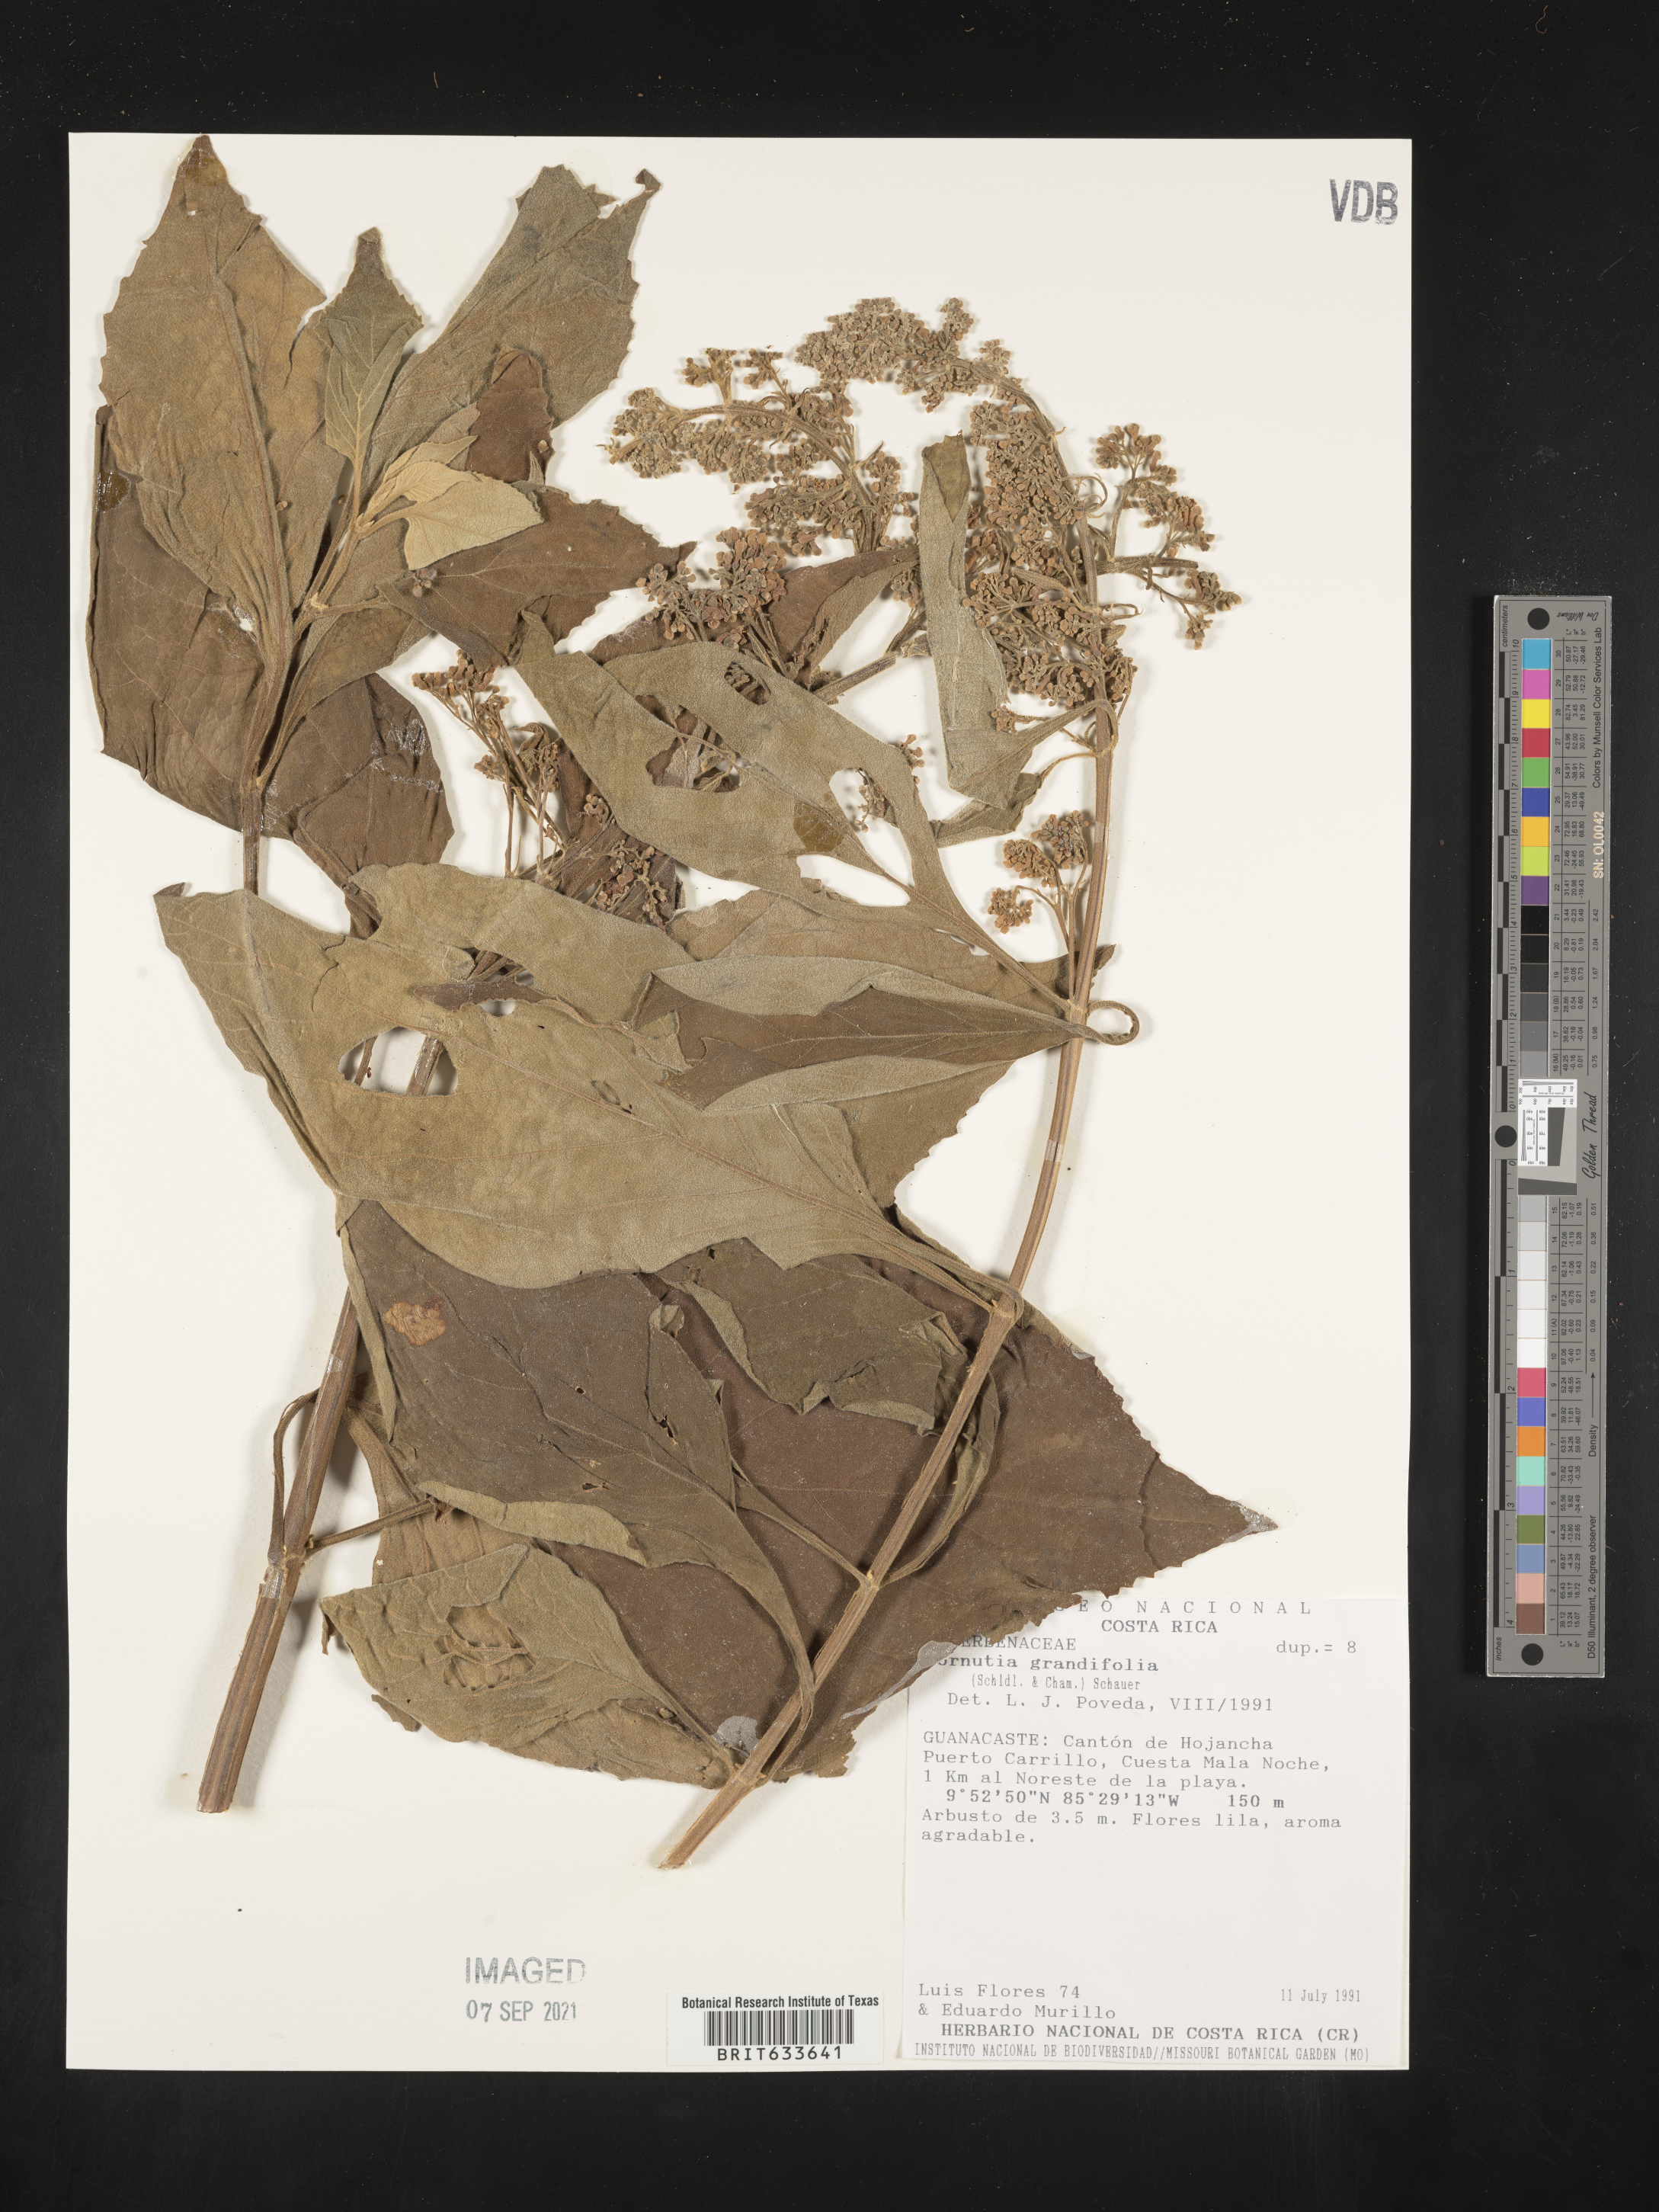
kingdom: Plantae
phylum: Tracheophyta
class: Magnoliopsida
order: Lamiales
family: Lamiaceae
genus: Cornutia
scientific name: Cornutia
